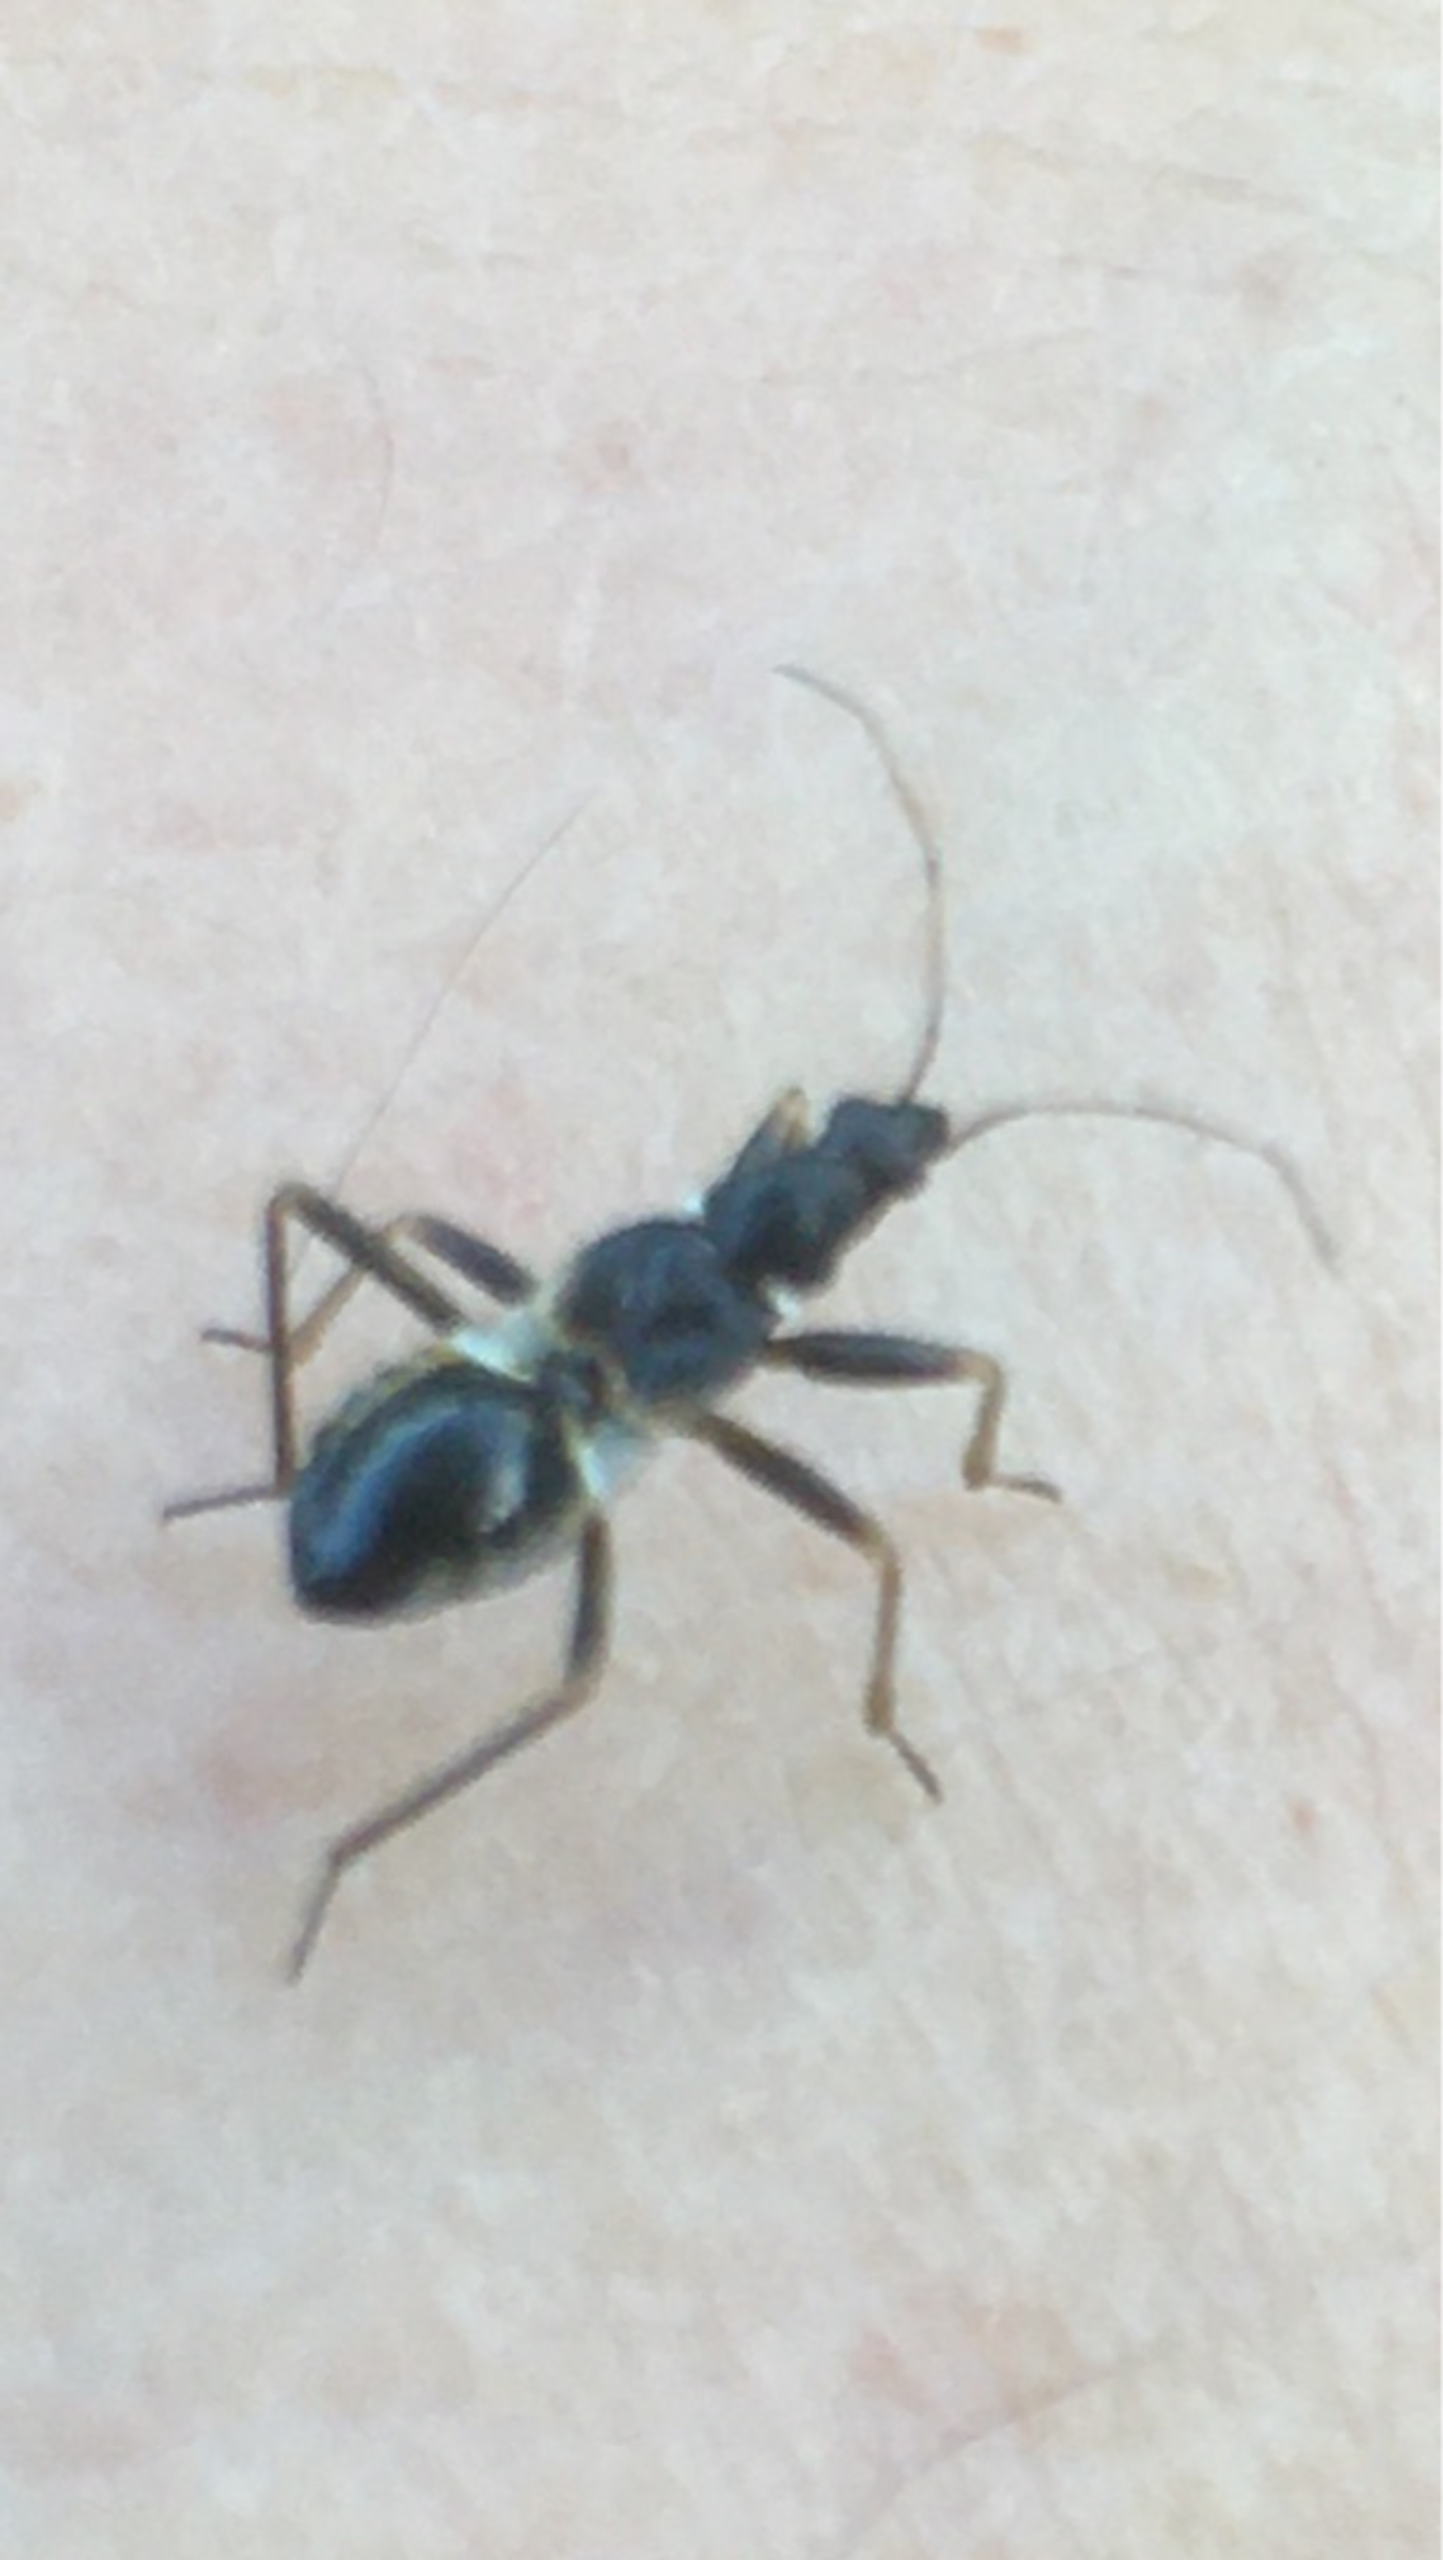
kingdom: Animalia
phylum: Arthropoda
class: Insecta
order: Hemiptera
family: Nabidae
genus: Himacerus
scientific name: Himacerus mirmicoides
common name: Myrenymfetæge
